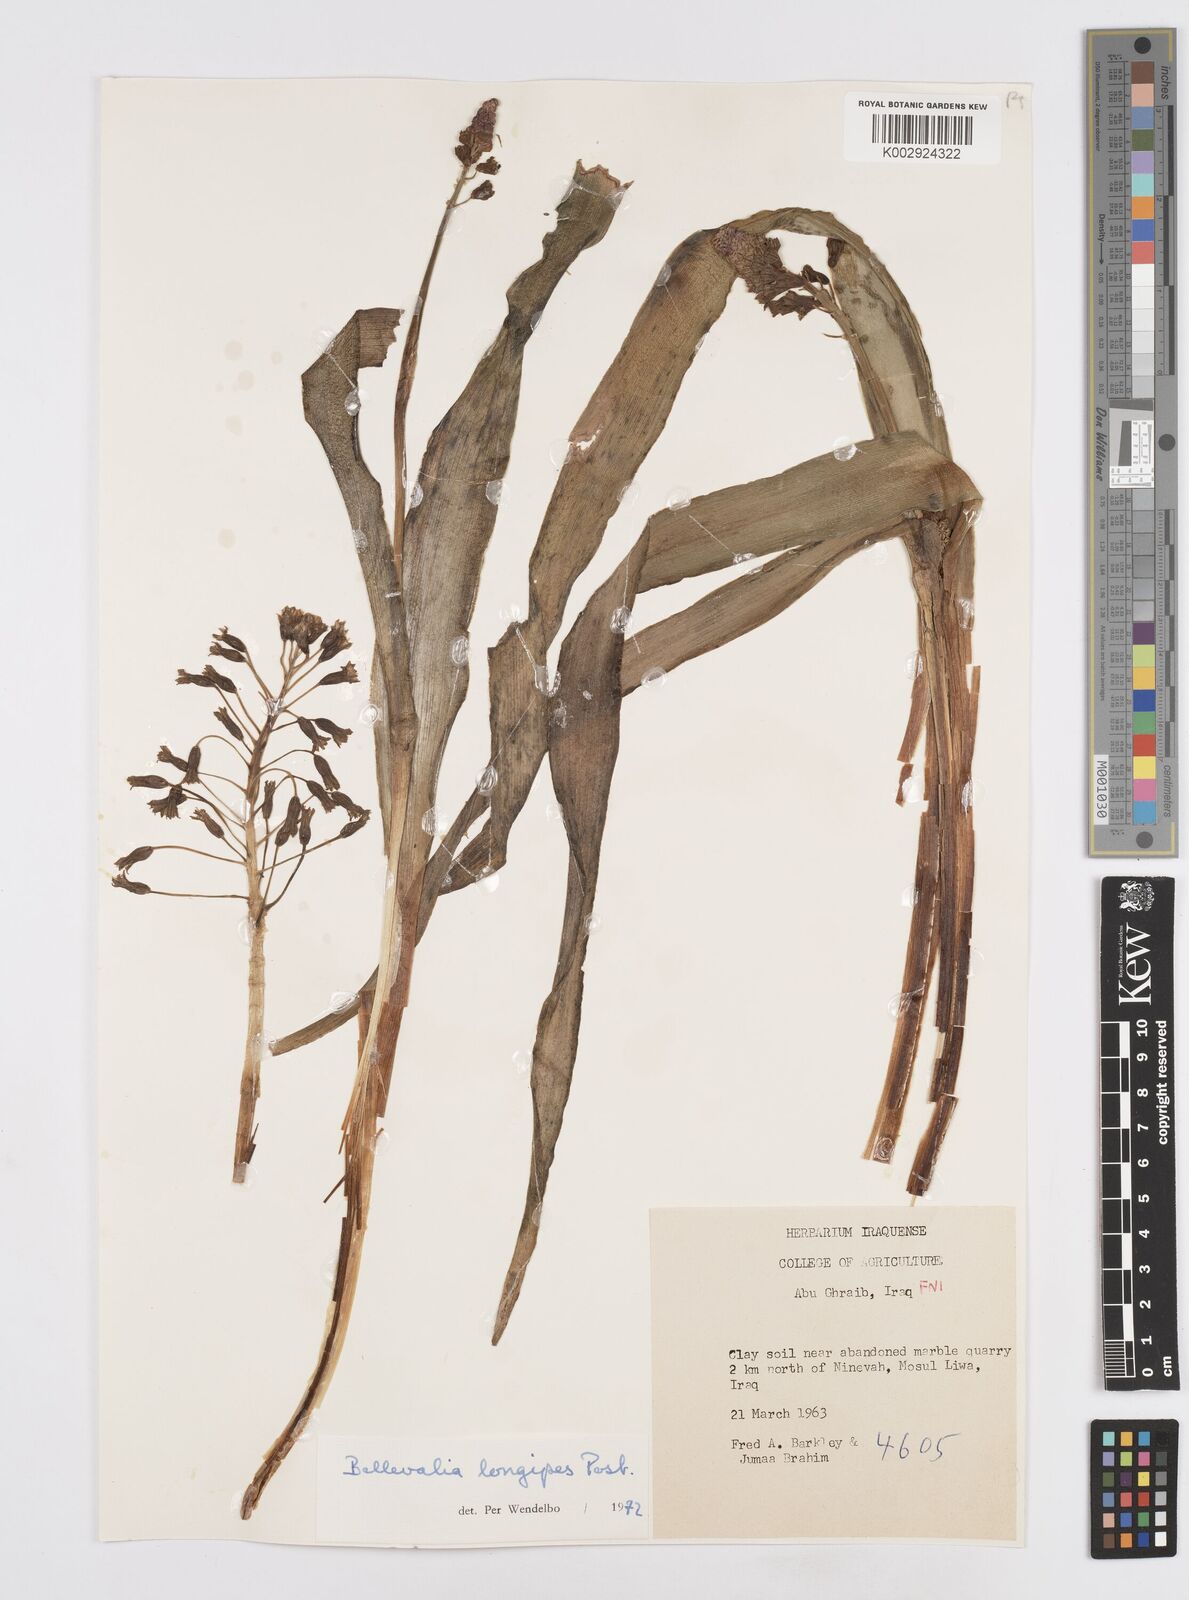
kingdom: Plantae
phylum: Tracheophyta
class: Liliopsida
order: Asparagales
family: Asparagaceae
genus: Bellevalia
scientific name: Bellevalia longipes
